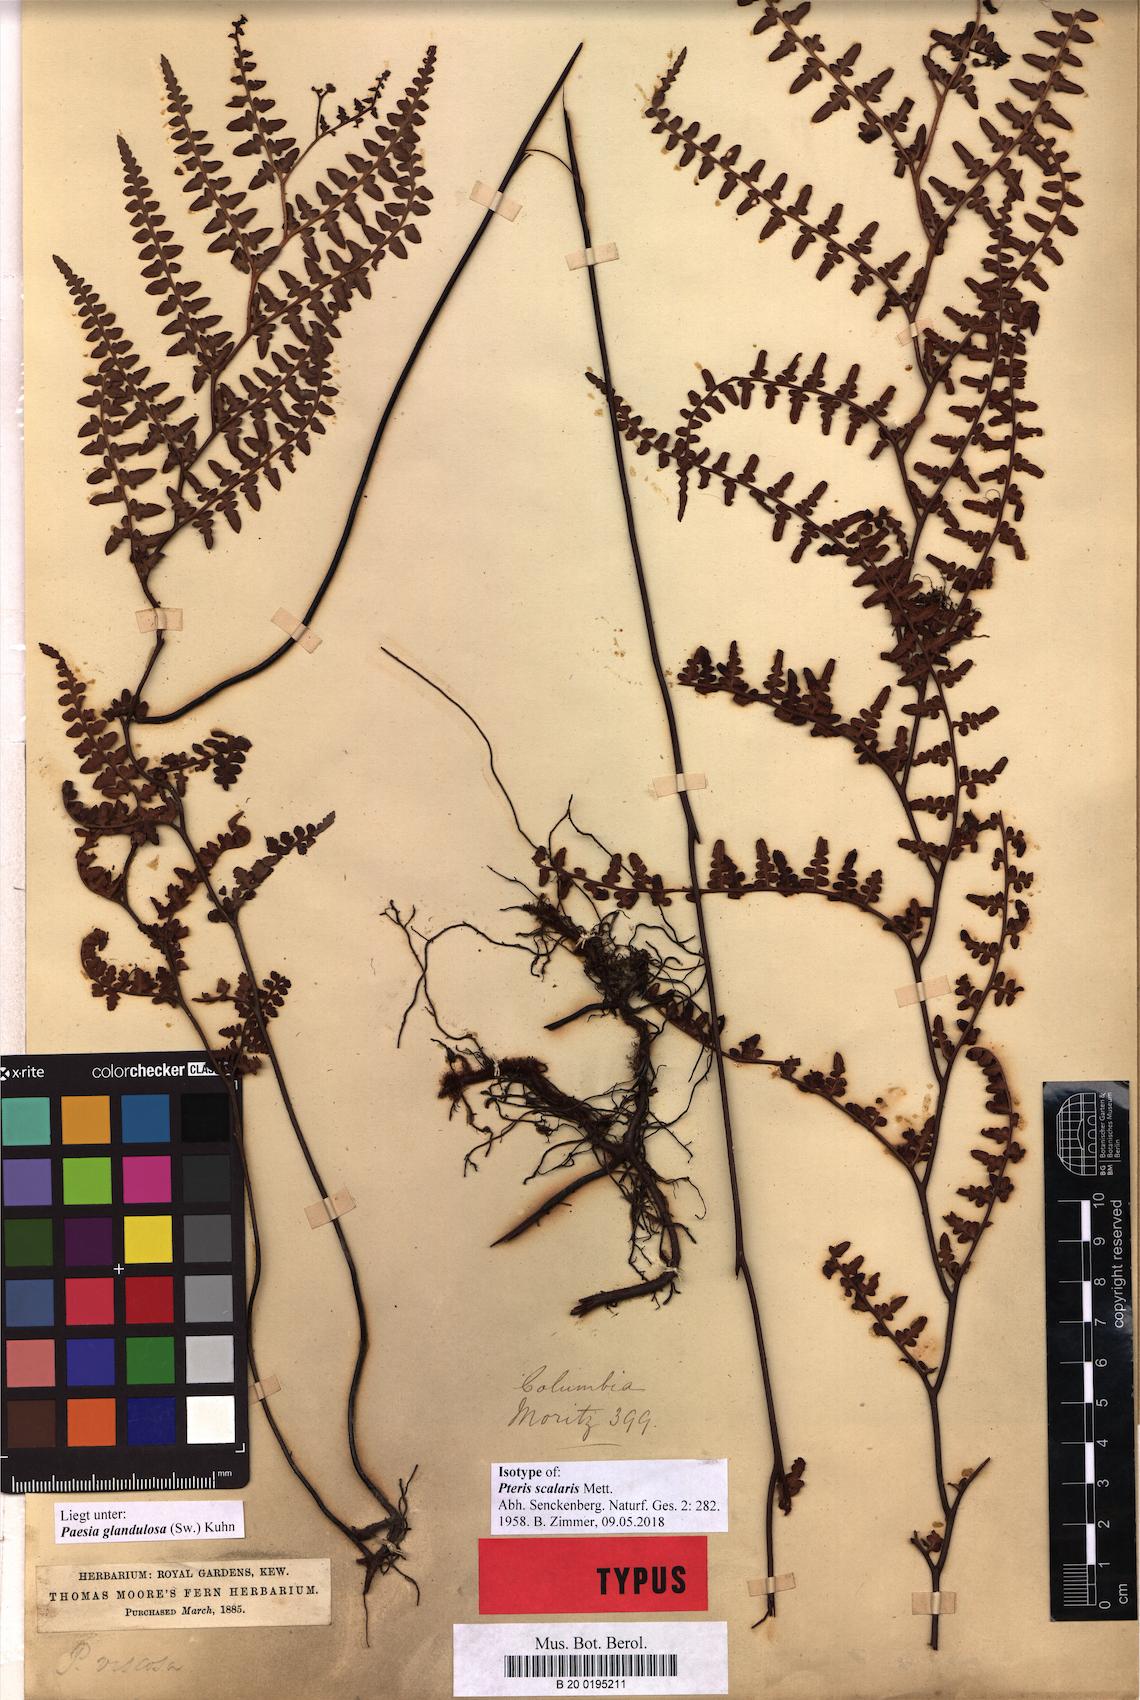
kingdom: Plantae
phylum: Tracheophyta
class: Polypodiopsida
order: Polypodiales
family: Dennstaedtiaceae
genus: Paesia
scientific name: Paesia glandulosa
